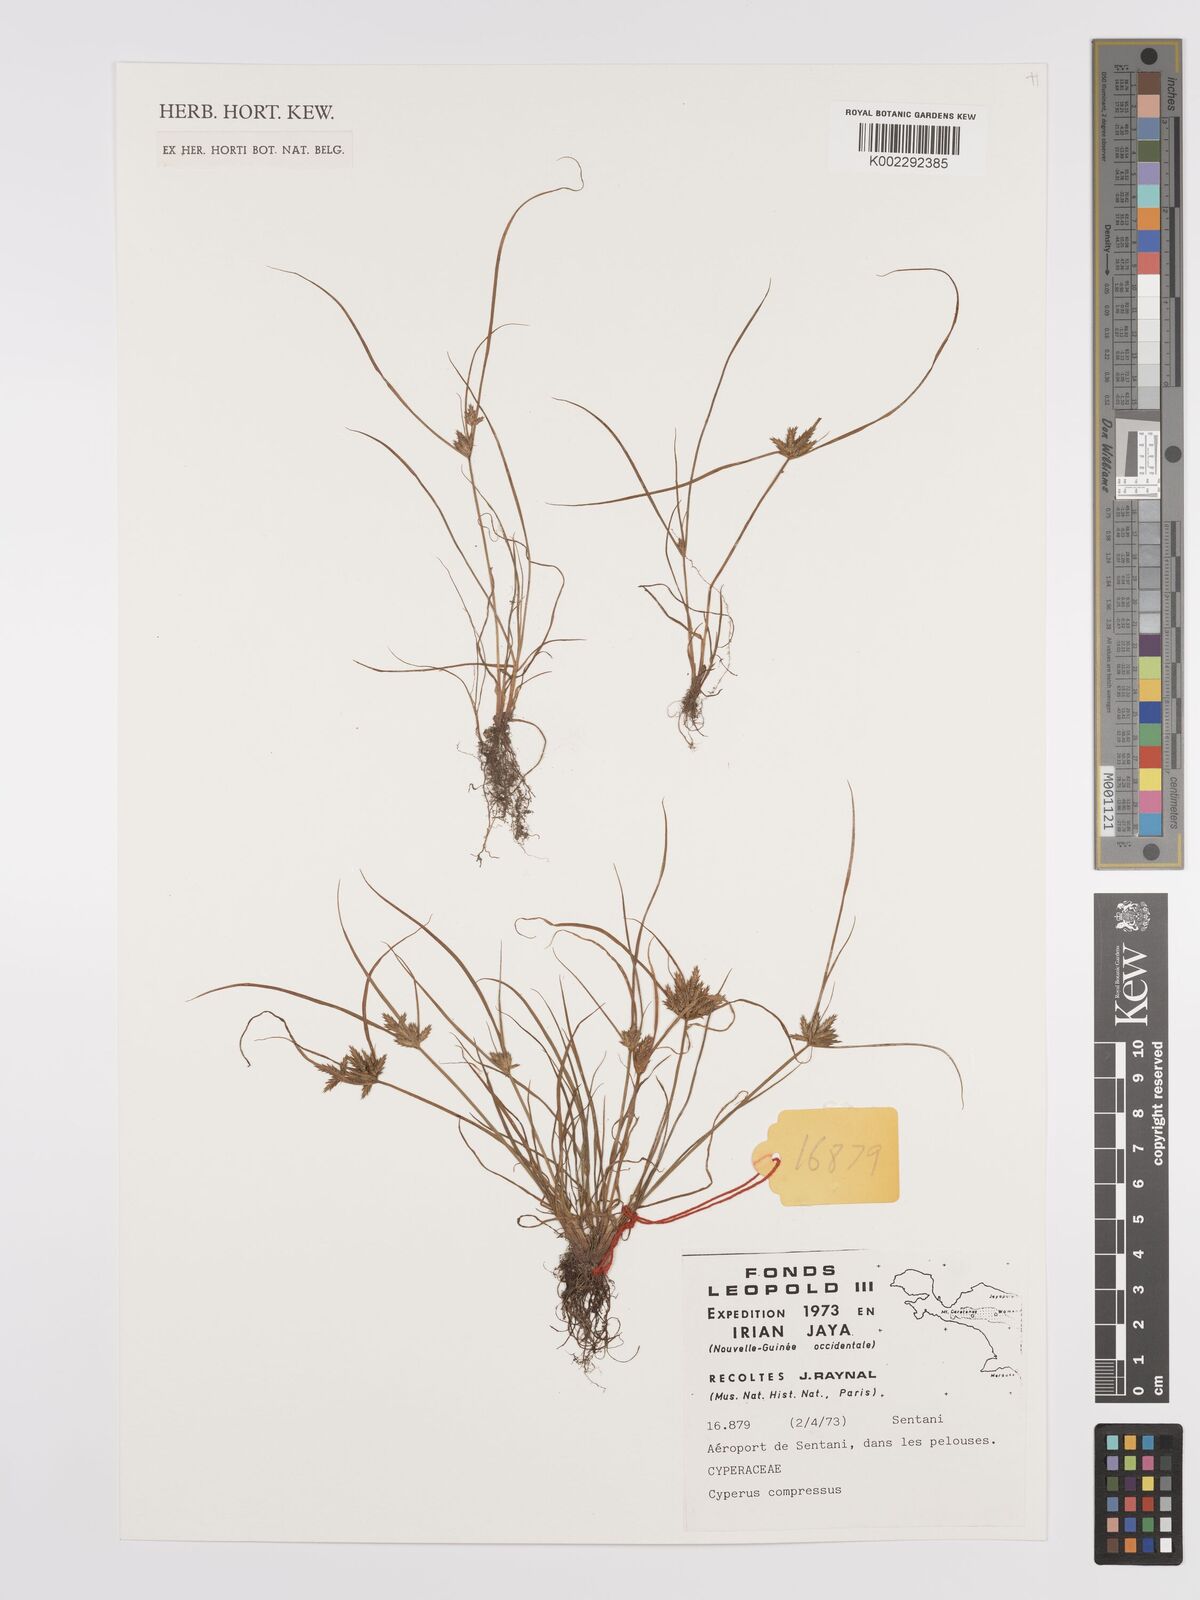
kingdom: Plantae
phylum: Tracheophyta
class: Liliopsida
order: Poales
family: Cyperaceae
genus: Cyperus
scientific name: Cyperus compressus
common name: Poorland flatsedge
